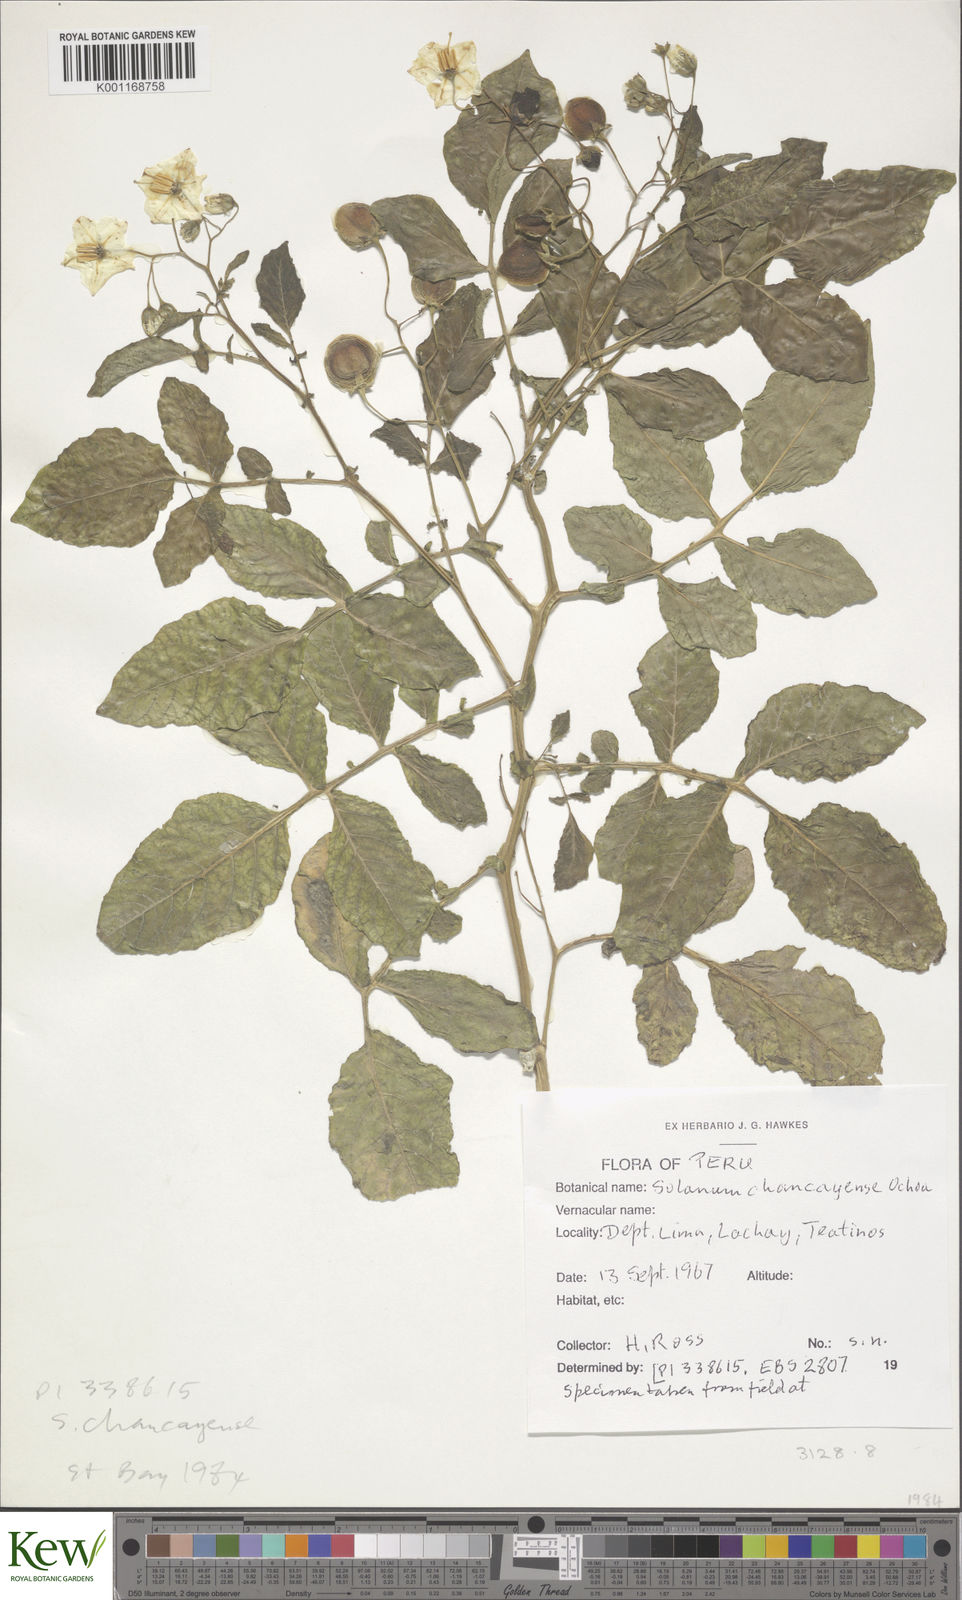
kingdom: Plantae
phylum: Tracheophyta
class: Magnoliopsida
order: Solanales
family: Solanaceae
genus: Solanum
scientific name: Solanum mochiquense
